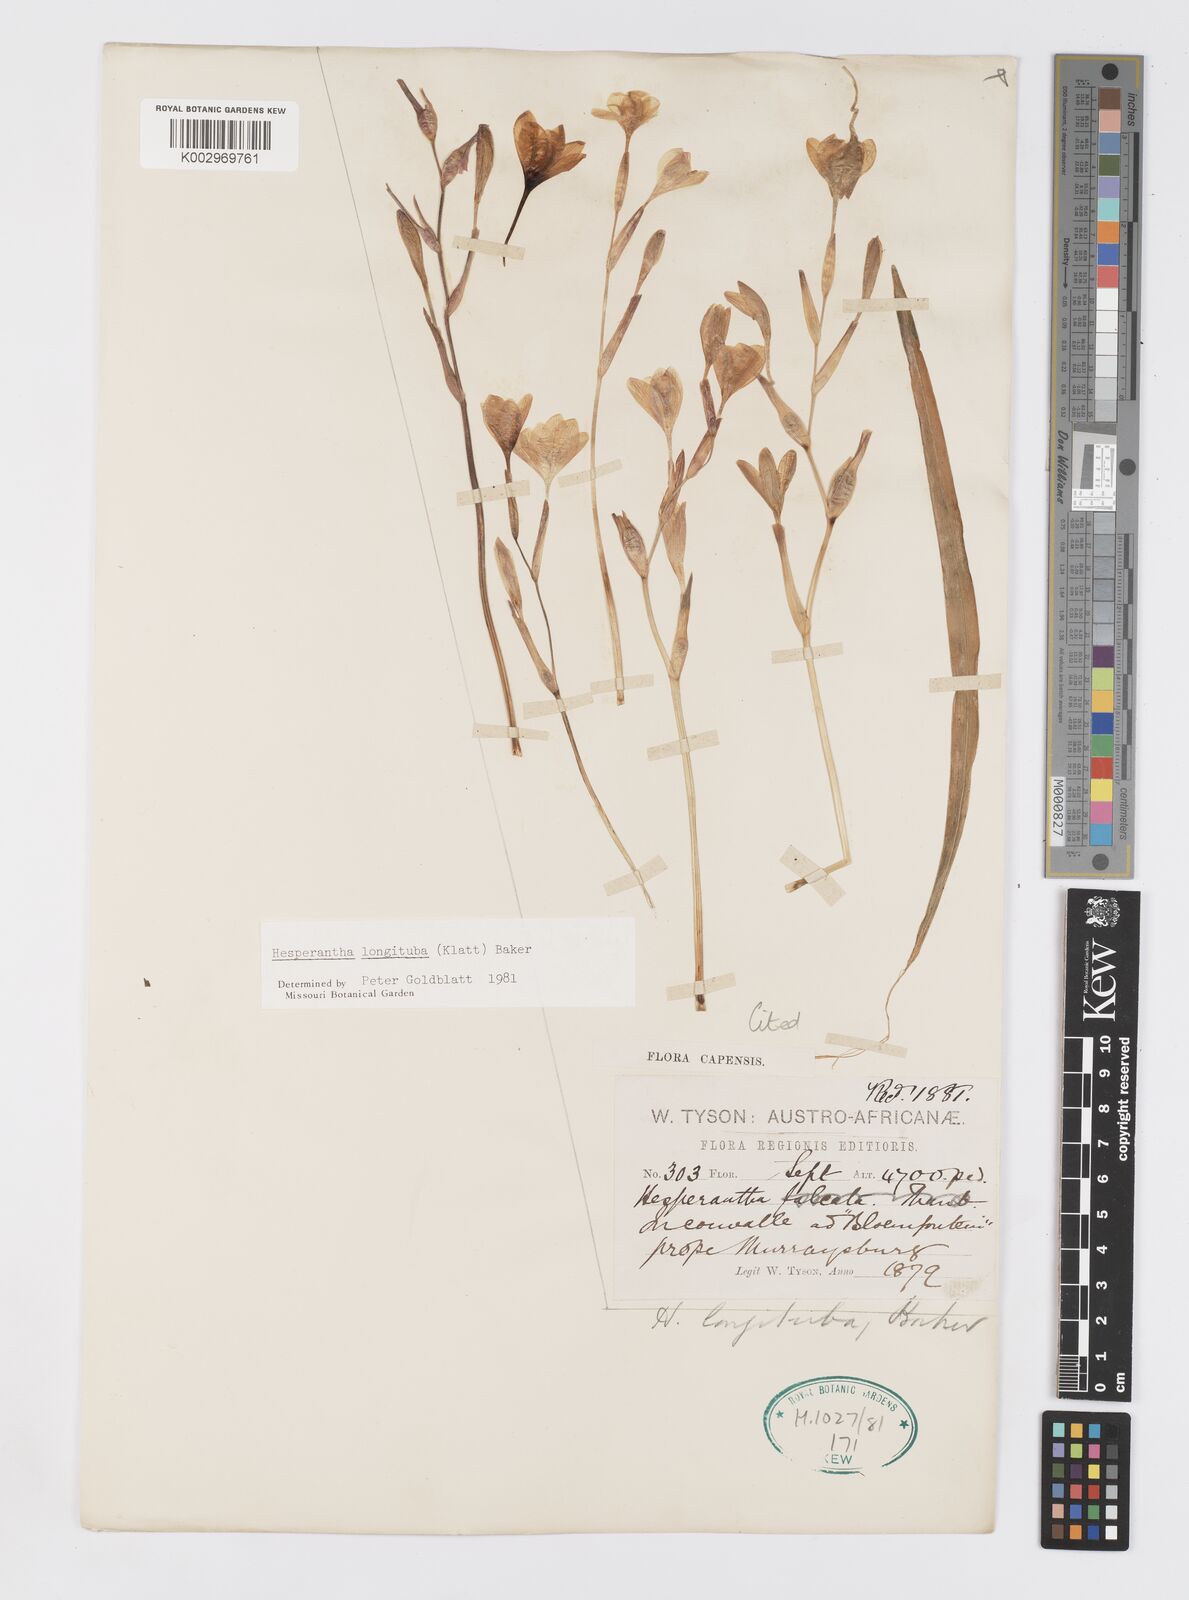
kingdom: Plantae
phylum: Tracheophyta
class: Liliopsida
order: Asparagales
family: Iridaceae
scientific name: Iridaceae
